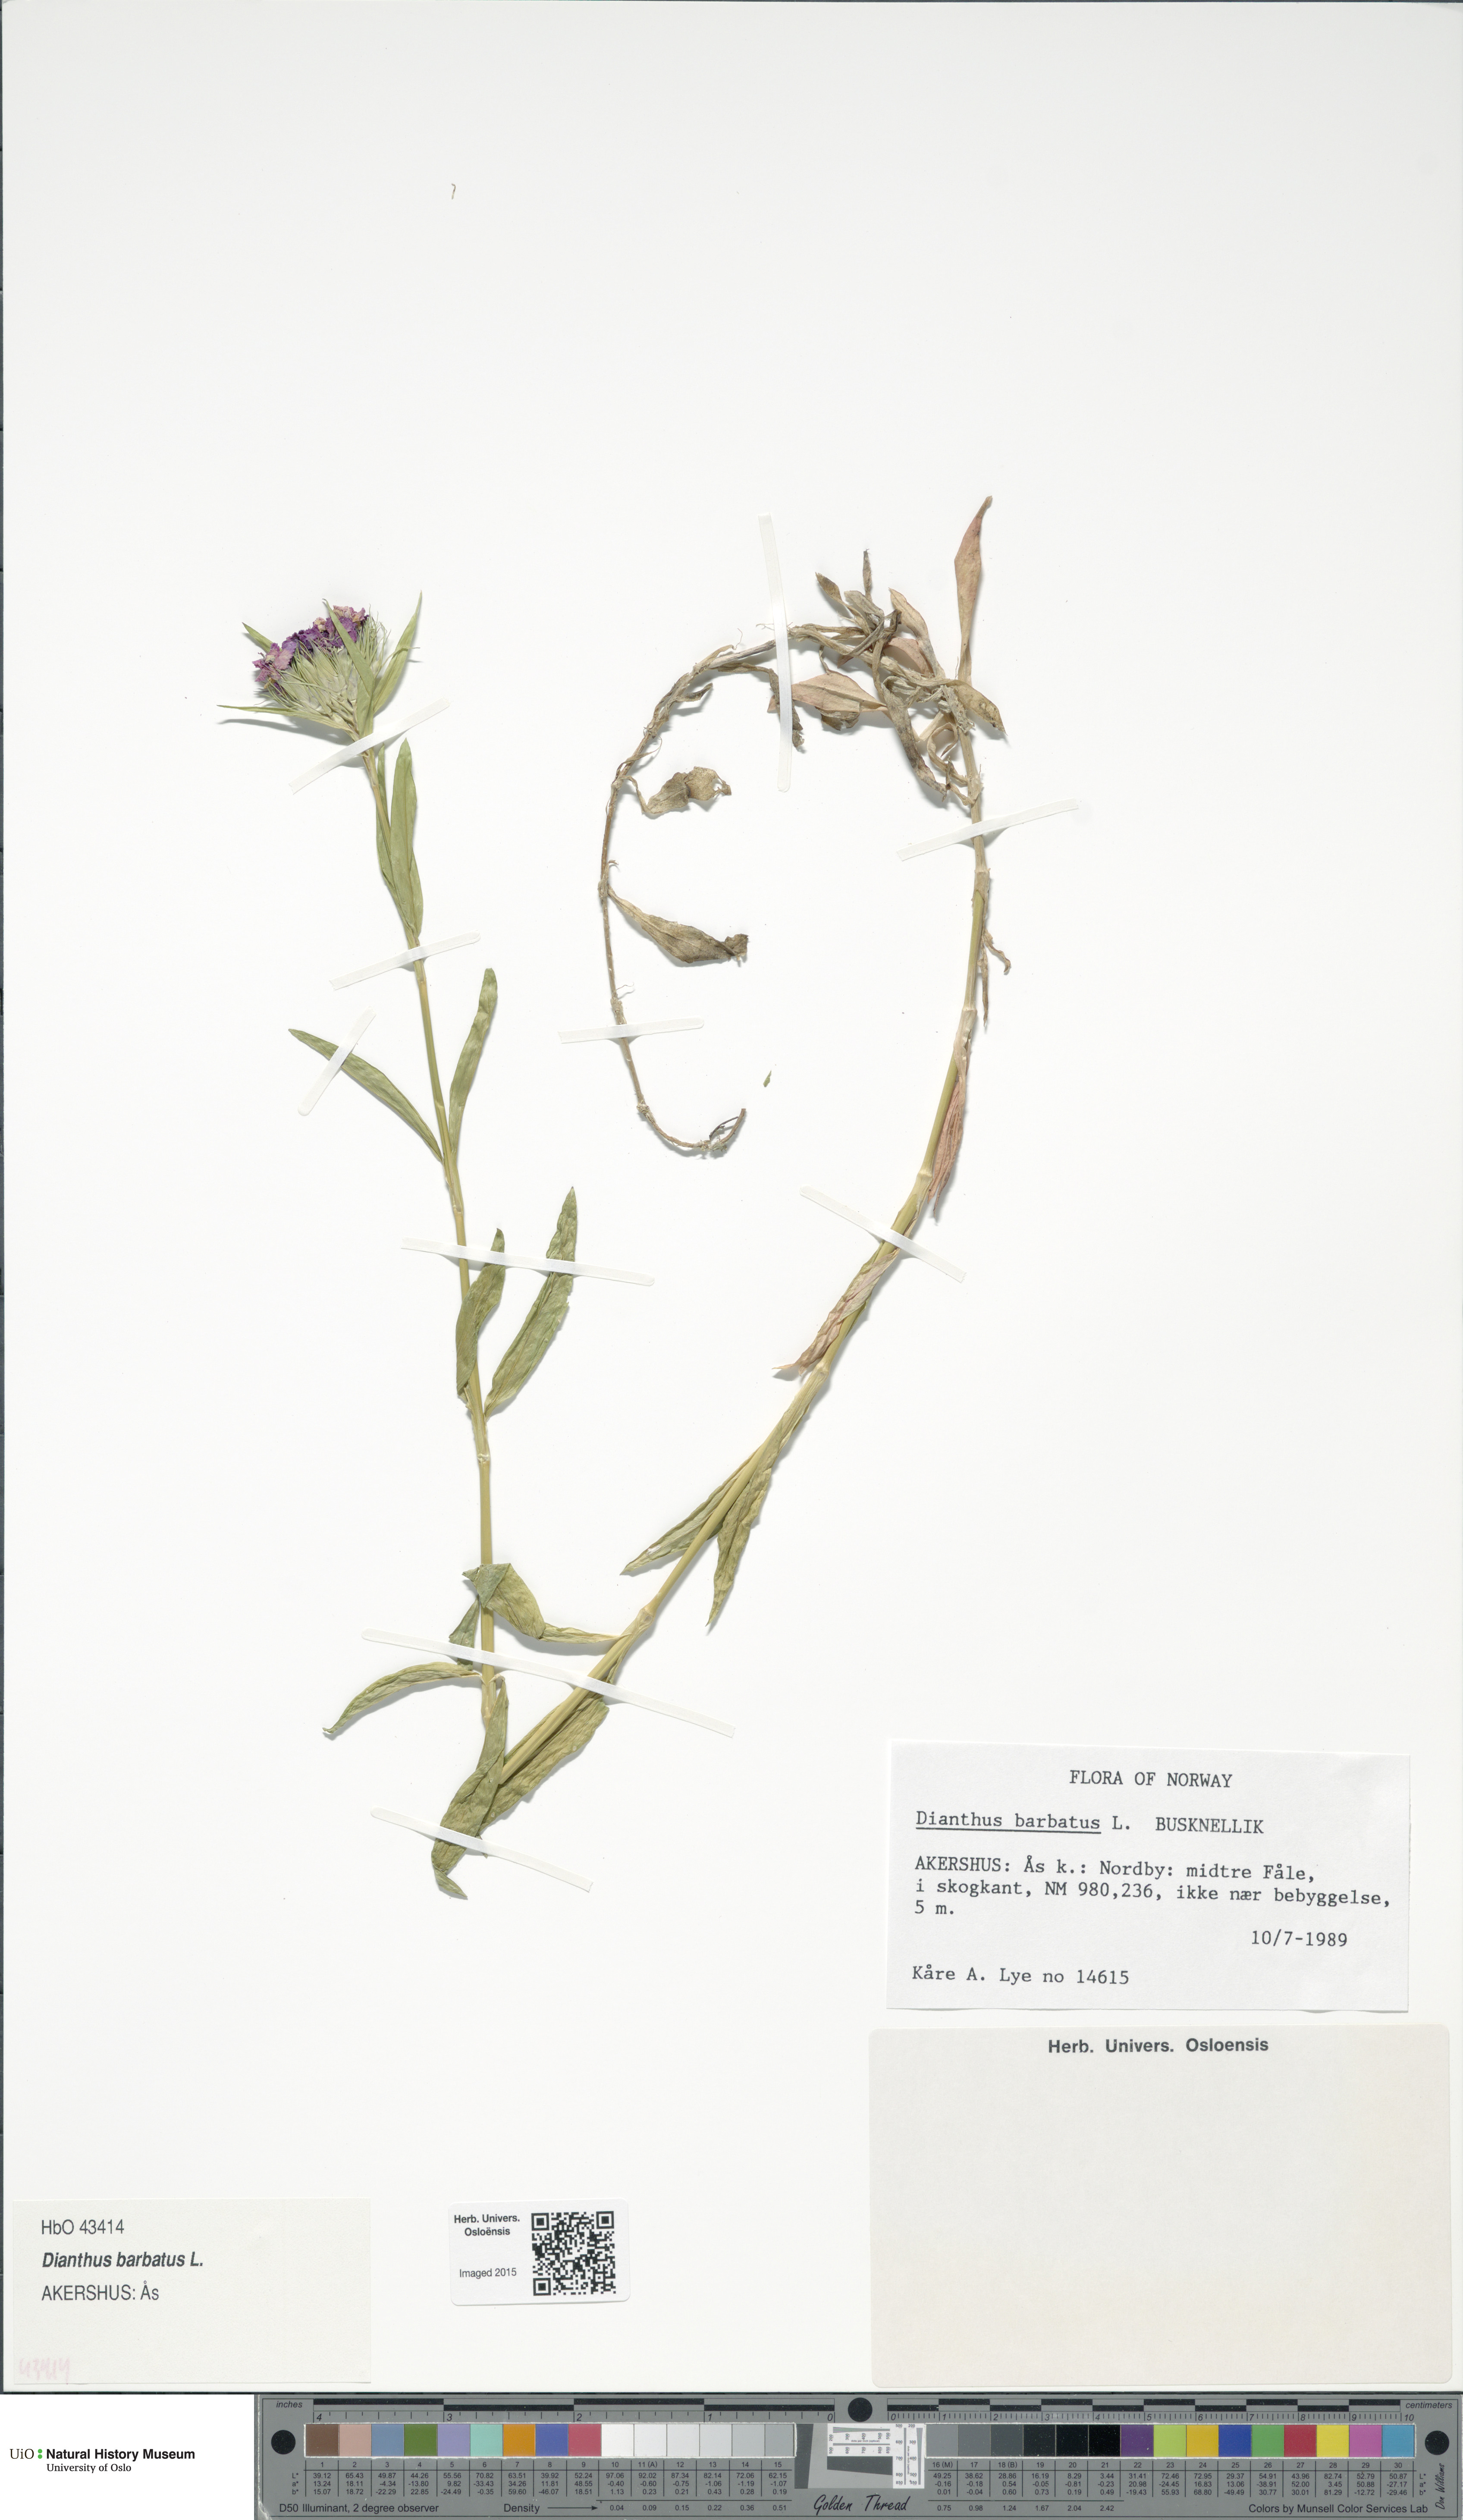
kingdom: Plantae
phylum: Tracheophyta
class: Magnoliopsida
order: Caryophyllales
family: Caryophyllaceae
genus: Dianthus
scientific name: Dianthus barbatus
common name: Sweet-william
